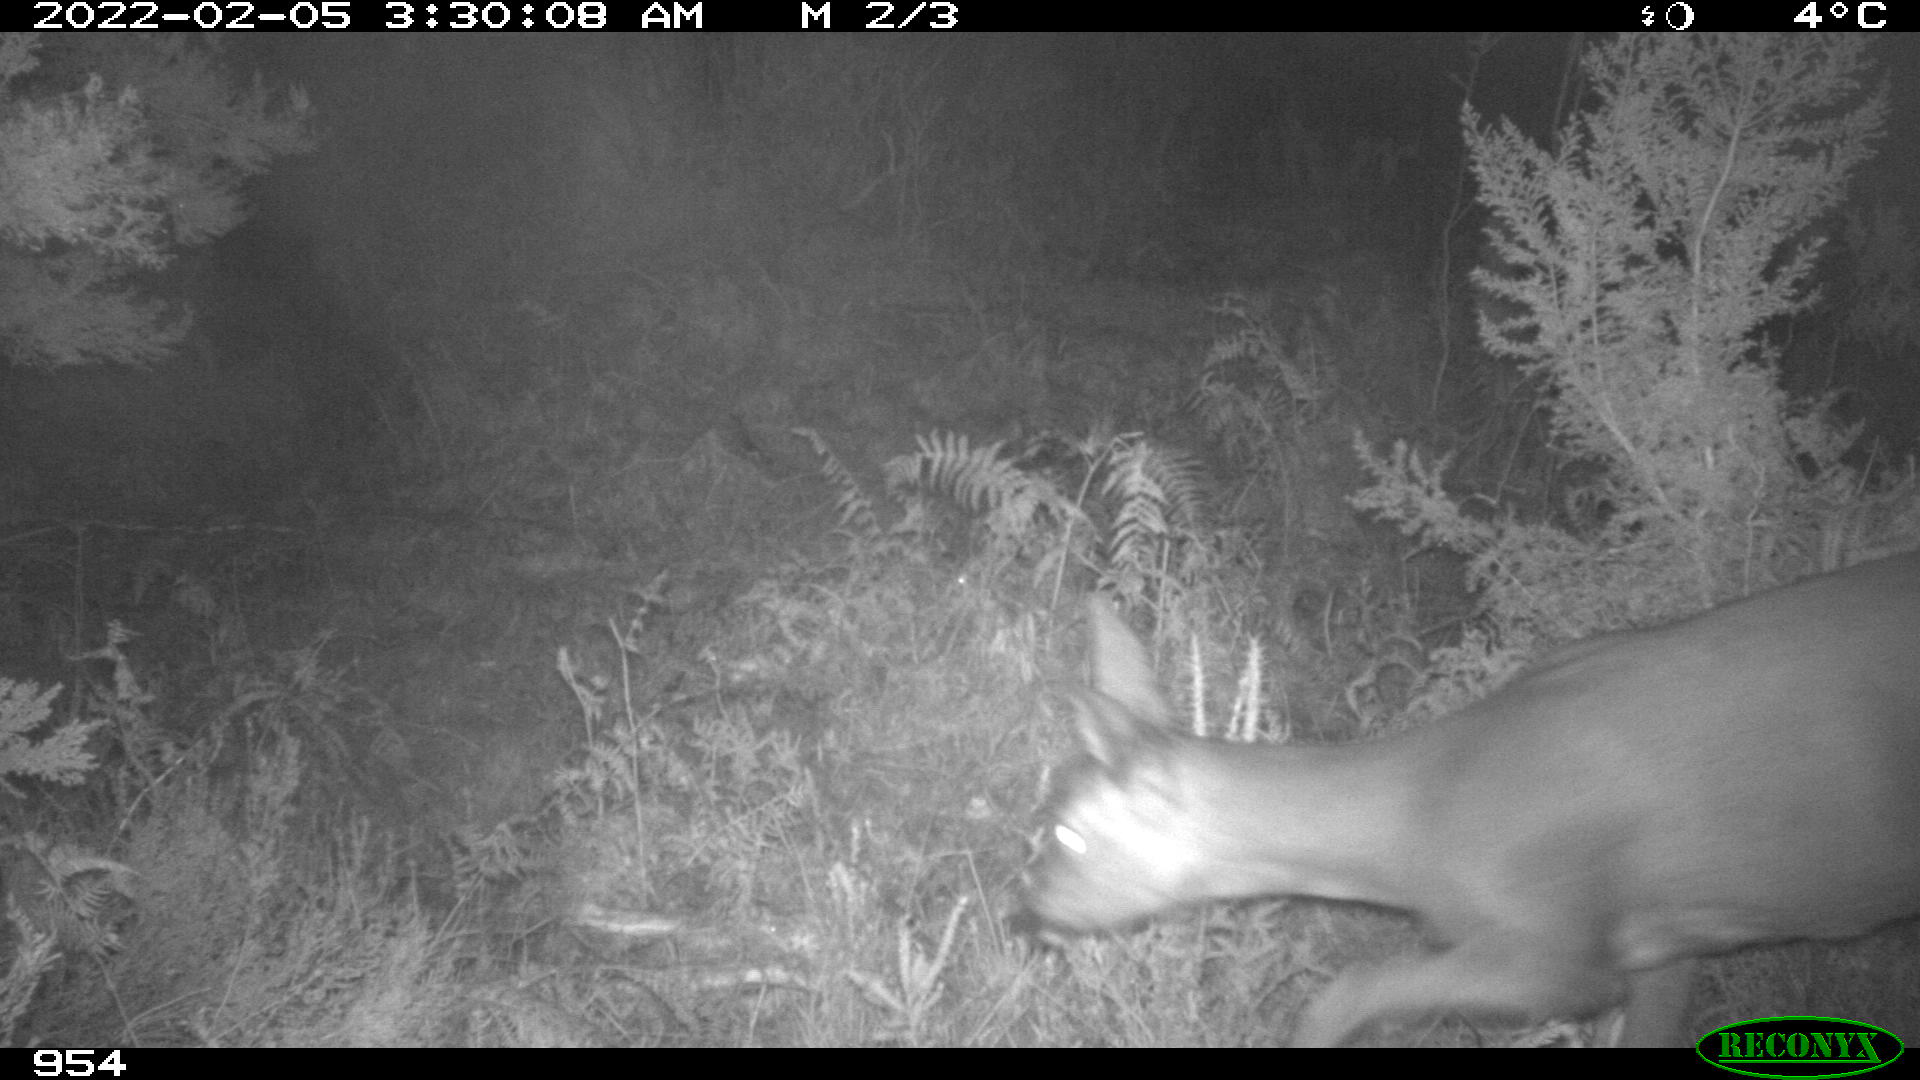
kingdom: Animalia
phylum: Chordata
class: Mammalia
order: Artiodactyla
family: Cervidae
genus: Capreolus
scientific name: Capreolus capreolus
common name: Western roe deer
